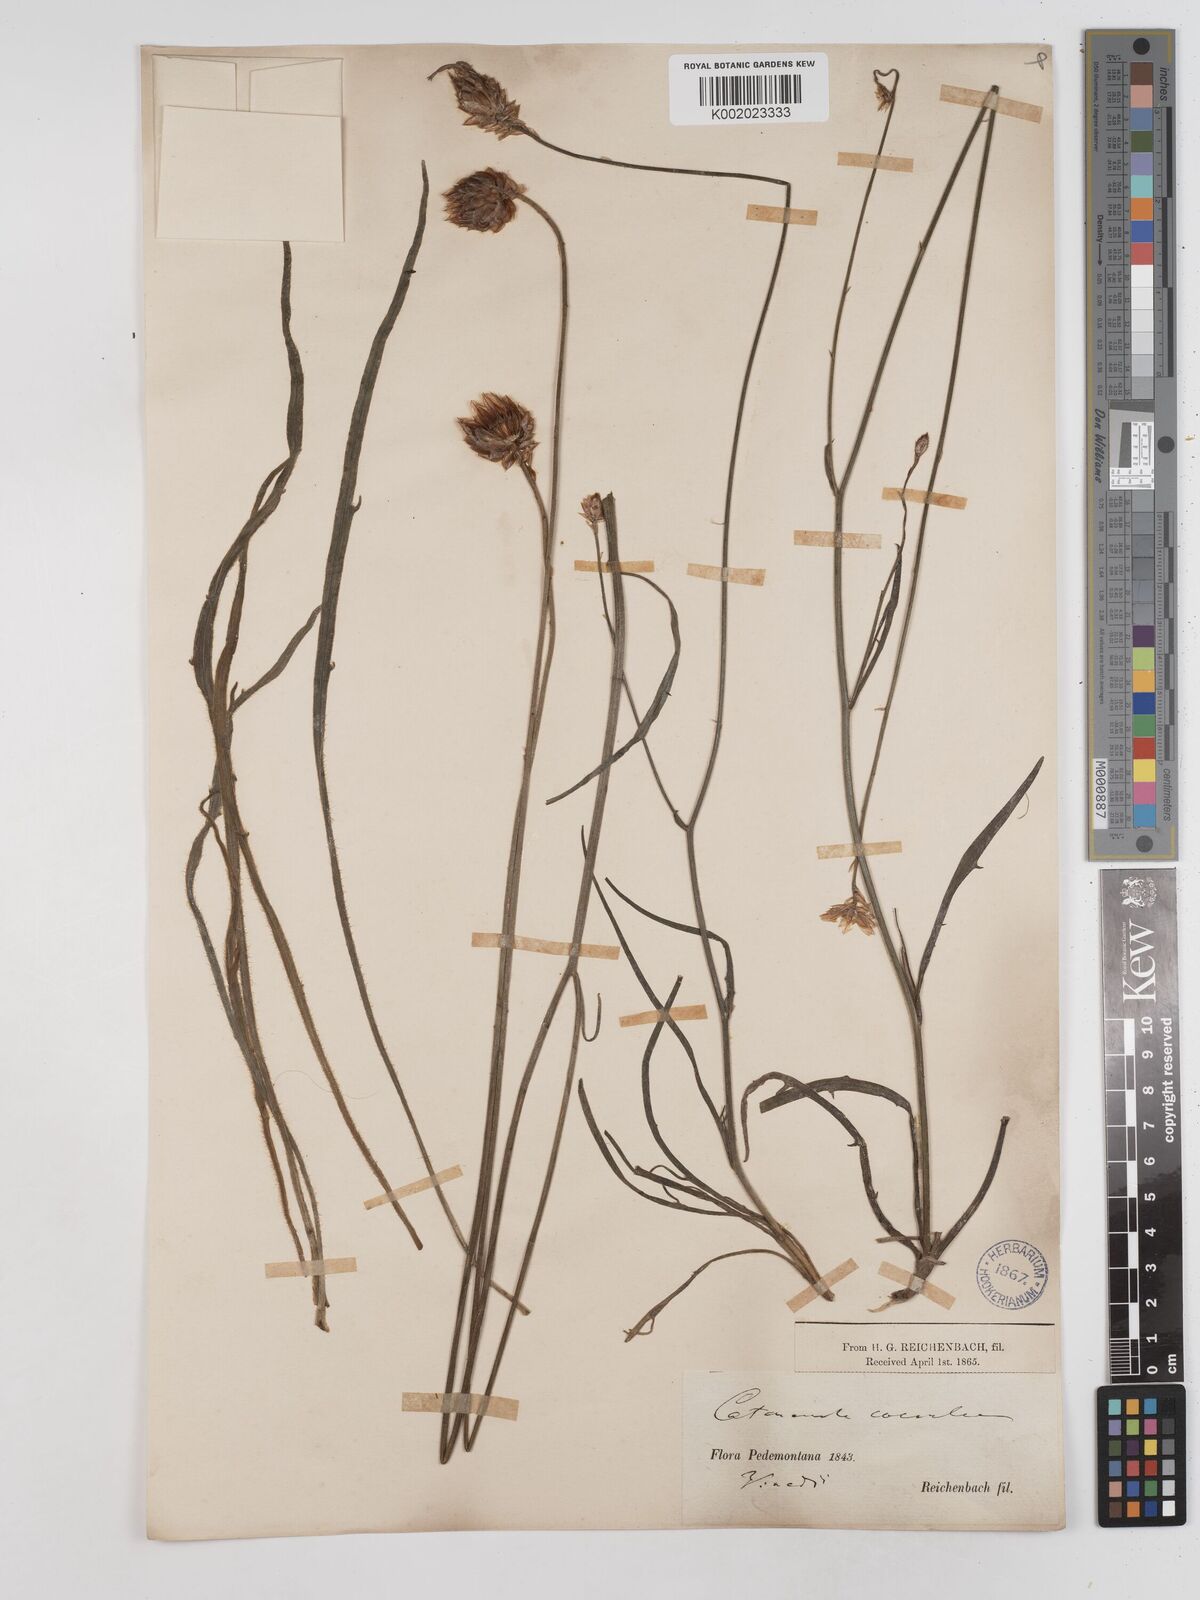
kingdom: Plantae
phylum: Tracheophyta
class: Magnoliopsida
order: Asterales
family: Asteraceae
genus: Catananche
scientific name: Catananche caerulea
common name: Blue cupidone
